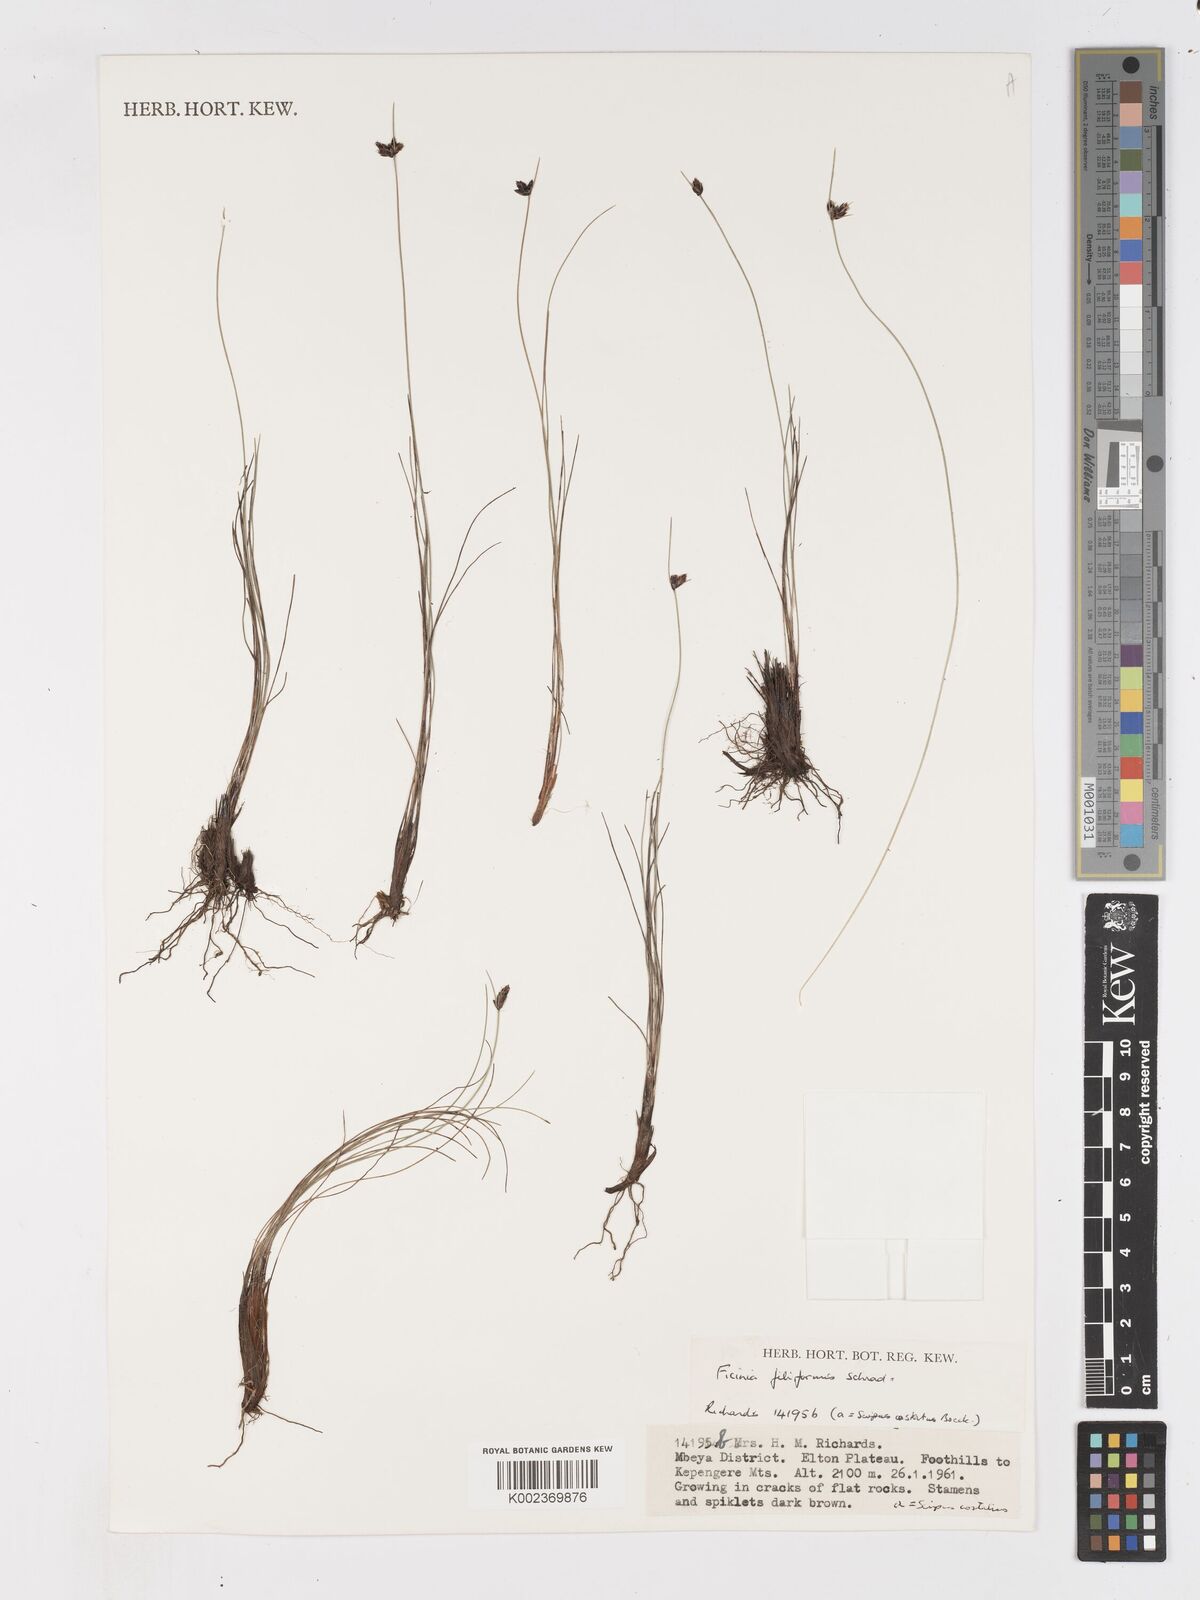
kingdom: Plantae
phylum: Tracheophyta
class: Liliopsida
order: Poales
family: Cyperaceae
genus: Ficinia
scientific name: Ficinia filiformis
